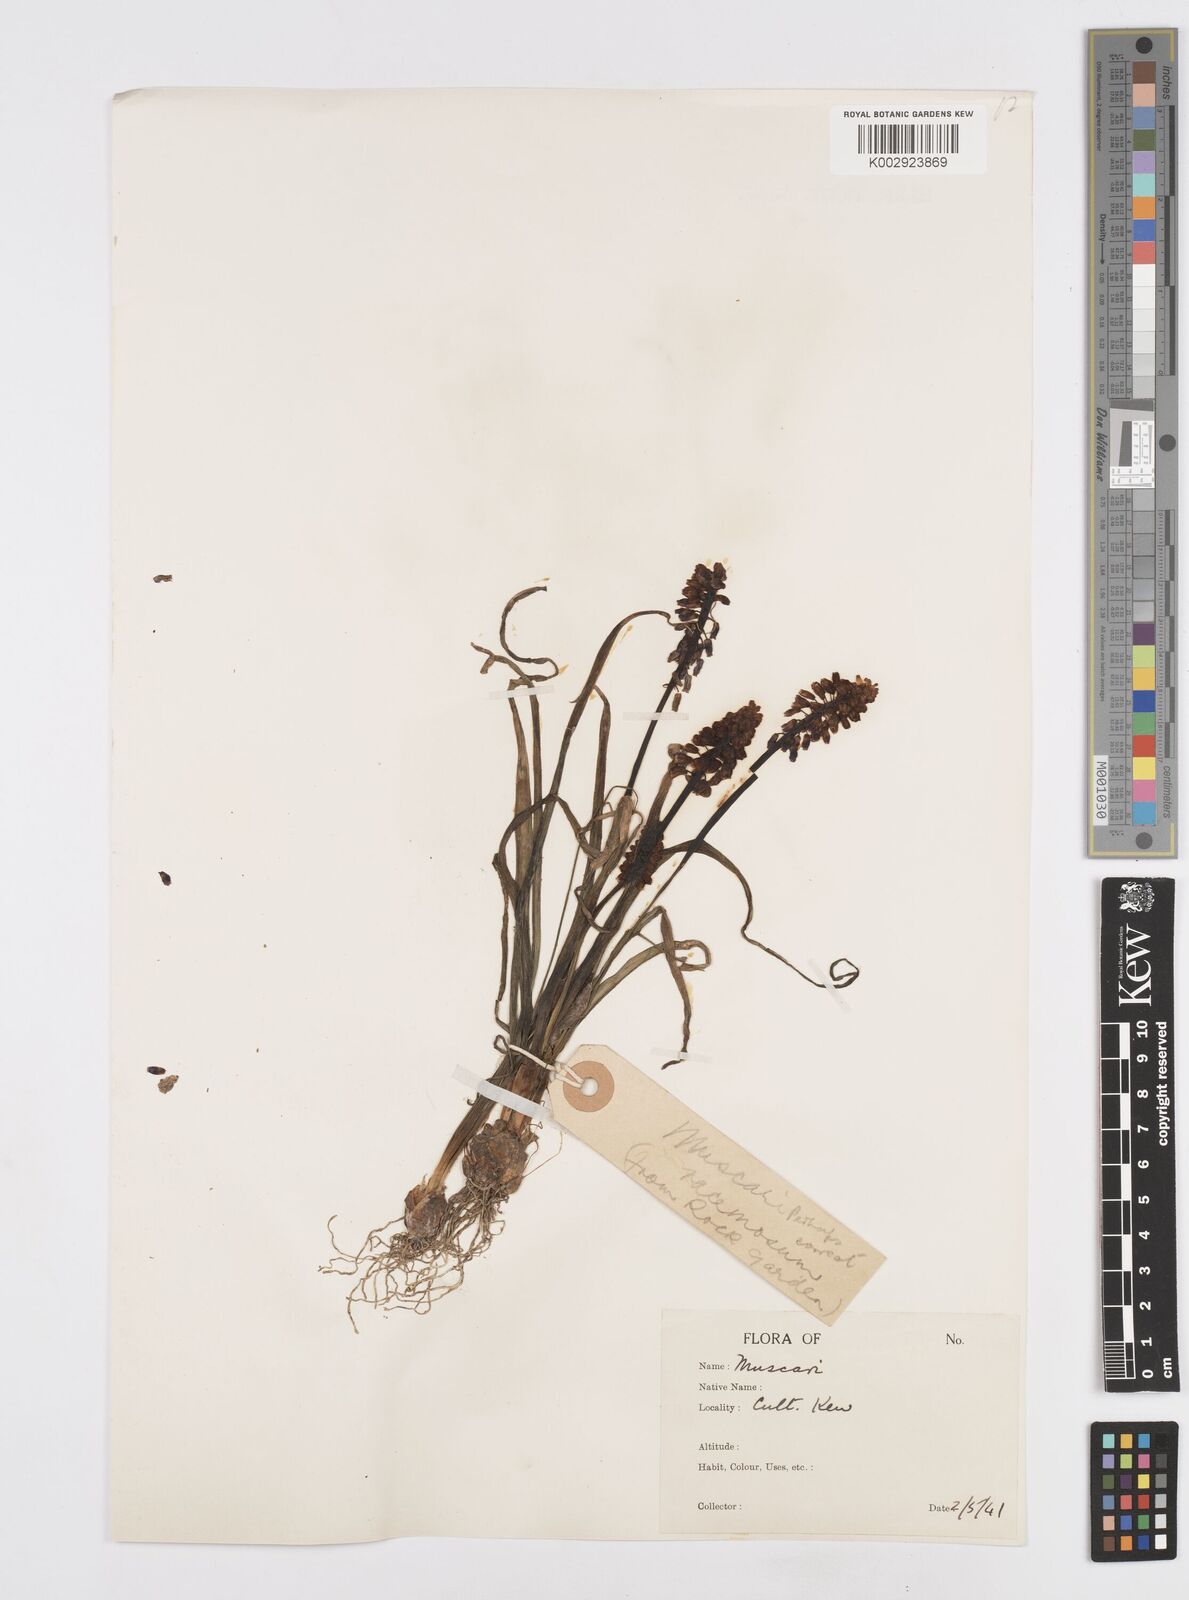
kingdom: Plantae
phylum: Tracheophyta
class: Liliopsida
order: Asparagales
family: Asparagaceae
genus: Muscarimia
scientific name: Muscarimia muscari
